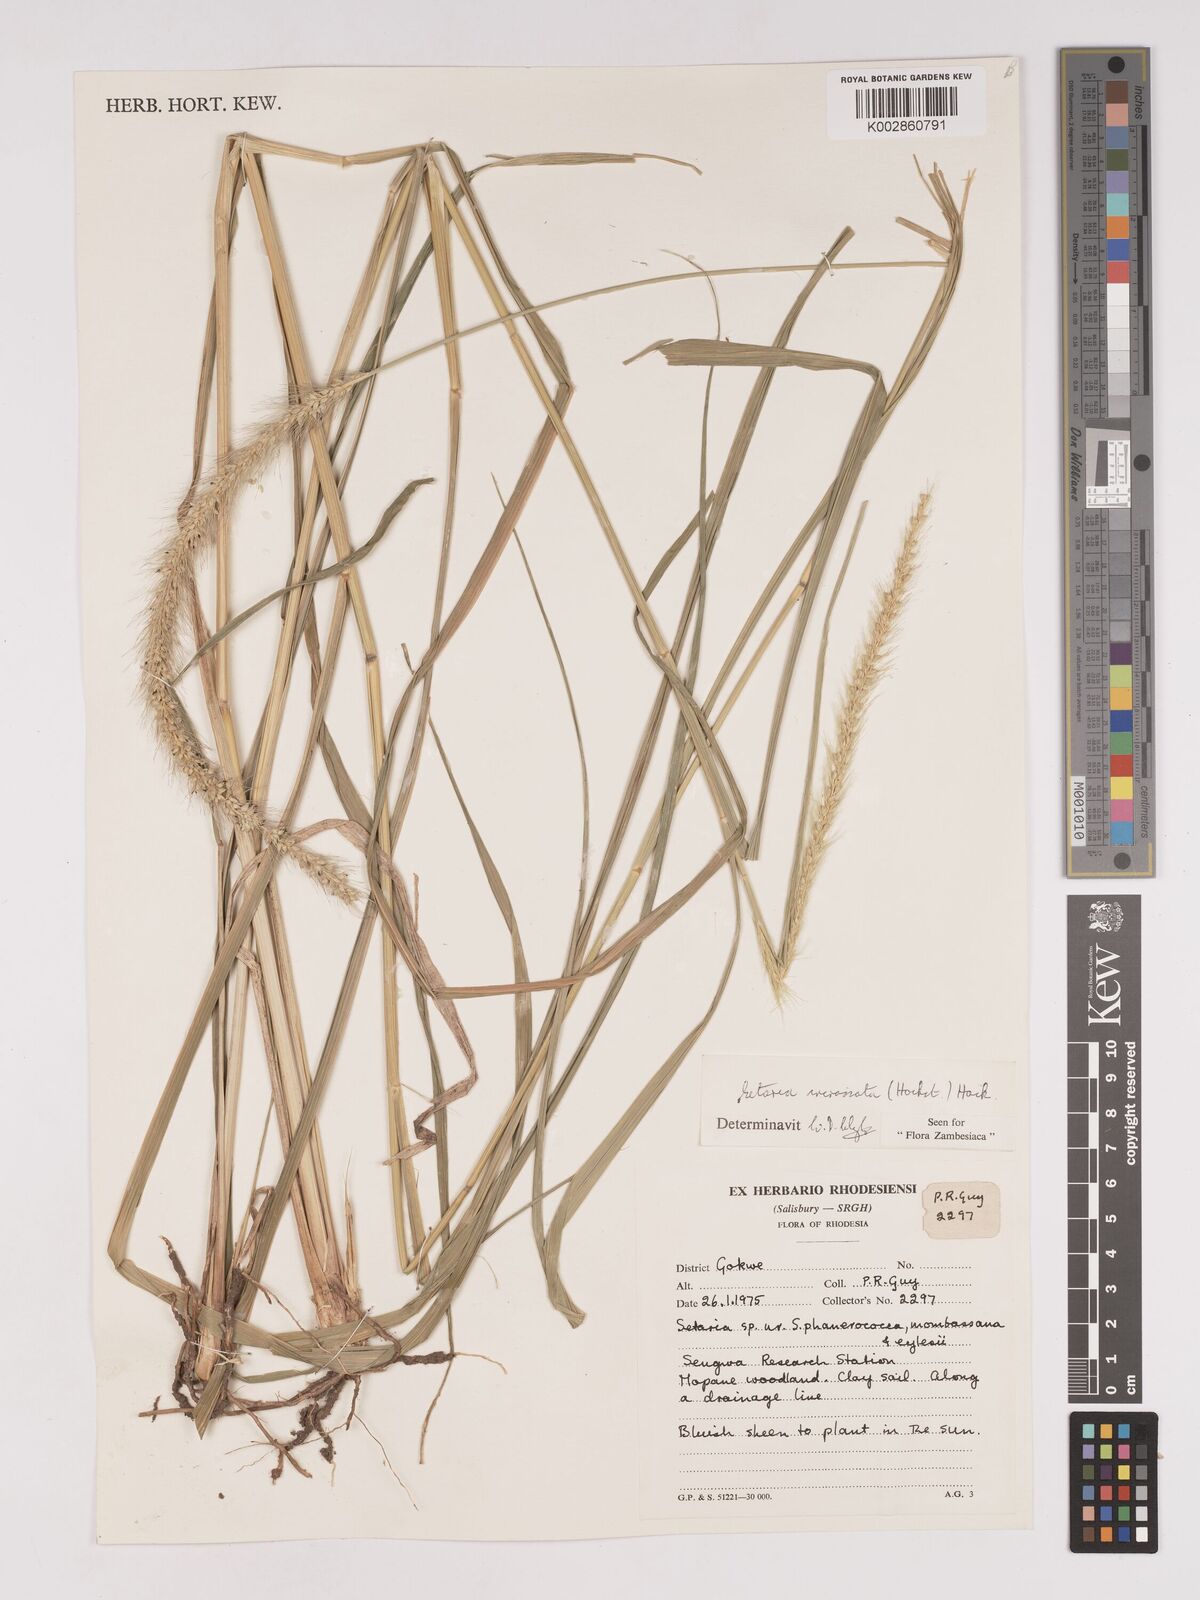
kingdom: Plantae
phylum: Tracheophyta
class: Liliopsida
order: Poales
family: Poaceae
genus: Setaria
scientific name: Setaria incrassata
